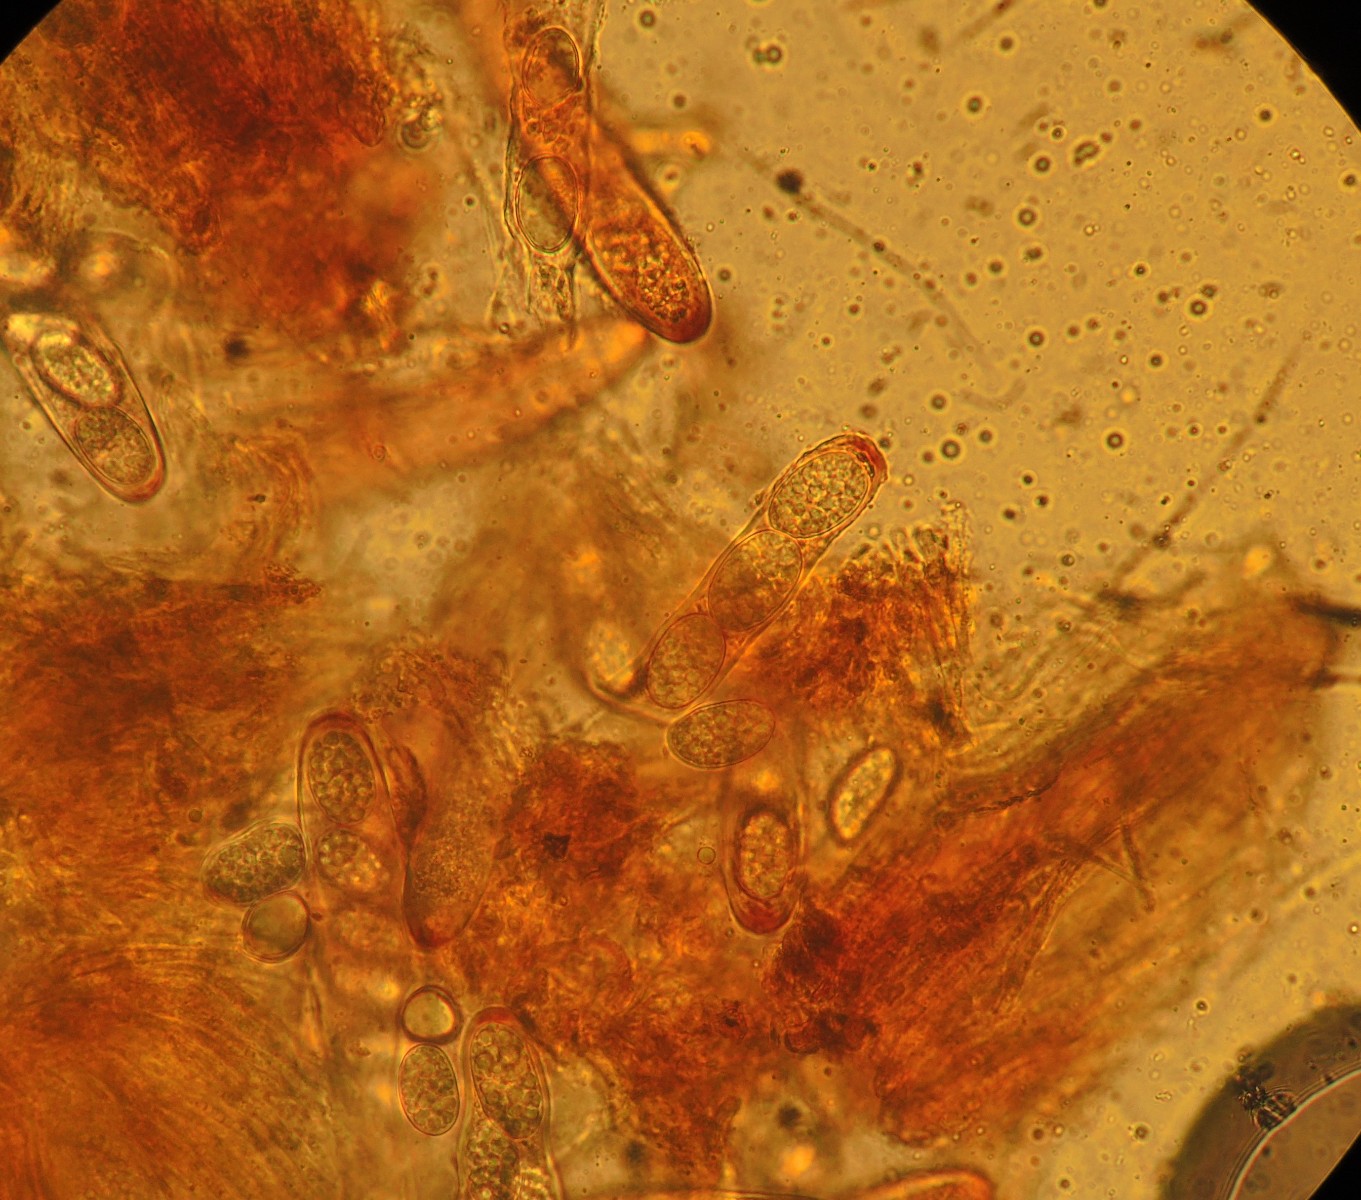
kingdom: Fungi
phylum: Ascomycota
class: Leotiomycetes
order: Helotiales
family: Dermateaceae
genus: Pezicula
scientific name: Pezicula ocellata
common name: tandet klyngeskive
